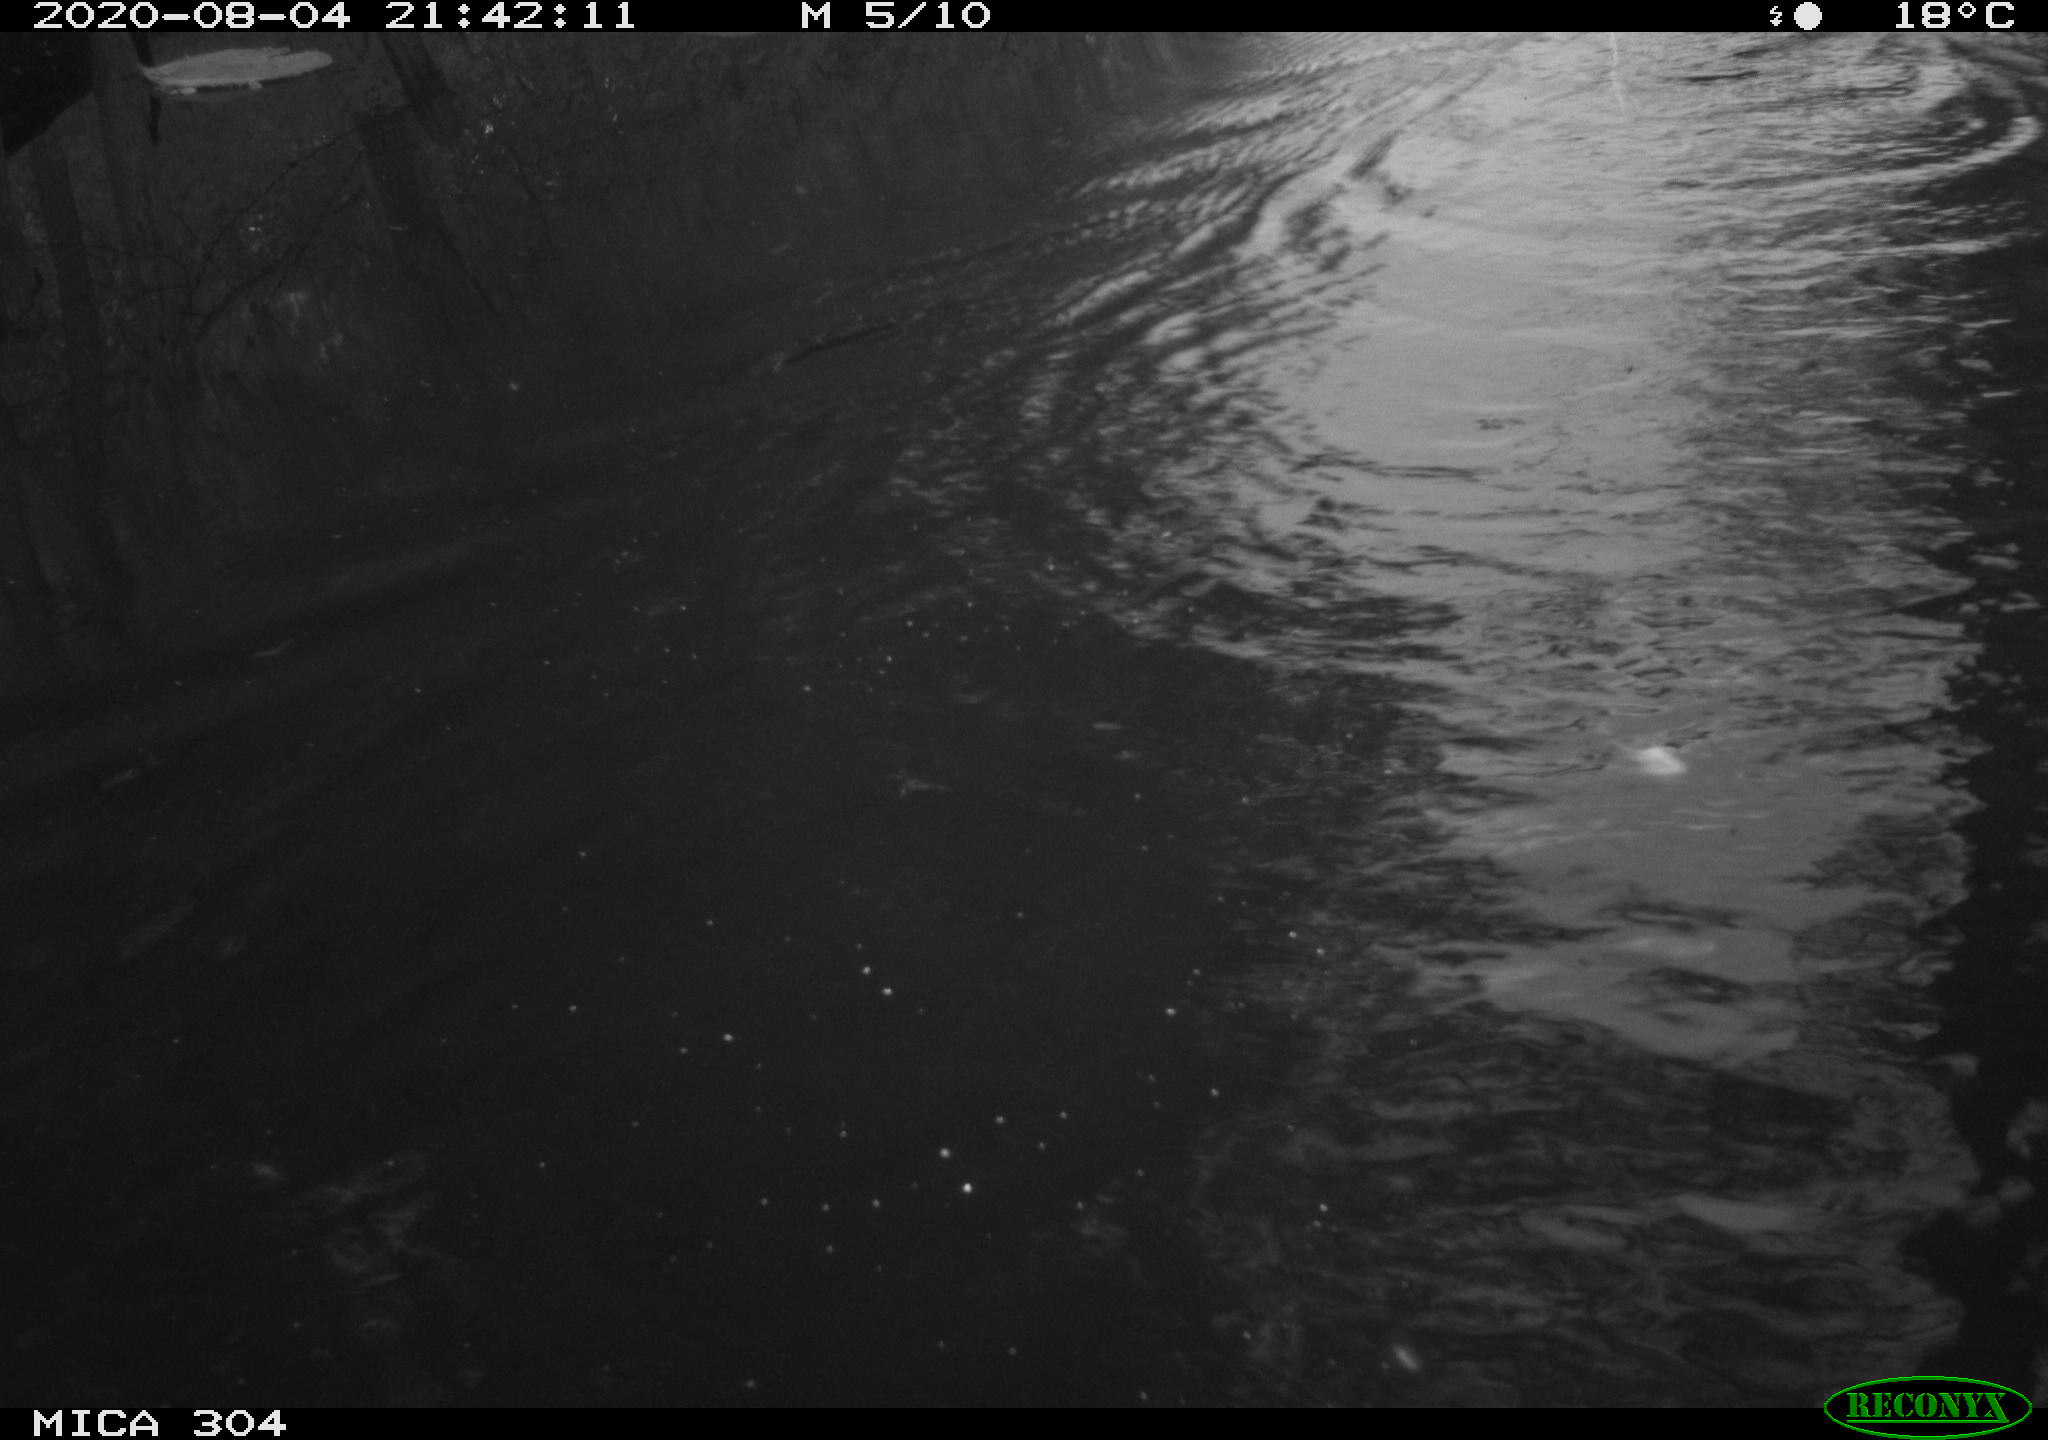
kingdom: Animalia
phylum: Chordata
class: Mammalia
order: Rodentia
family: Cricetidae
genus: Ondatra
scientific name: Ondatra zibethicus
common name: Muskrat
